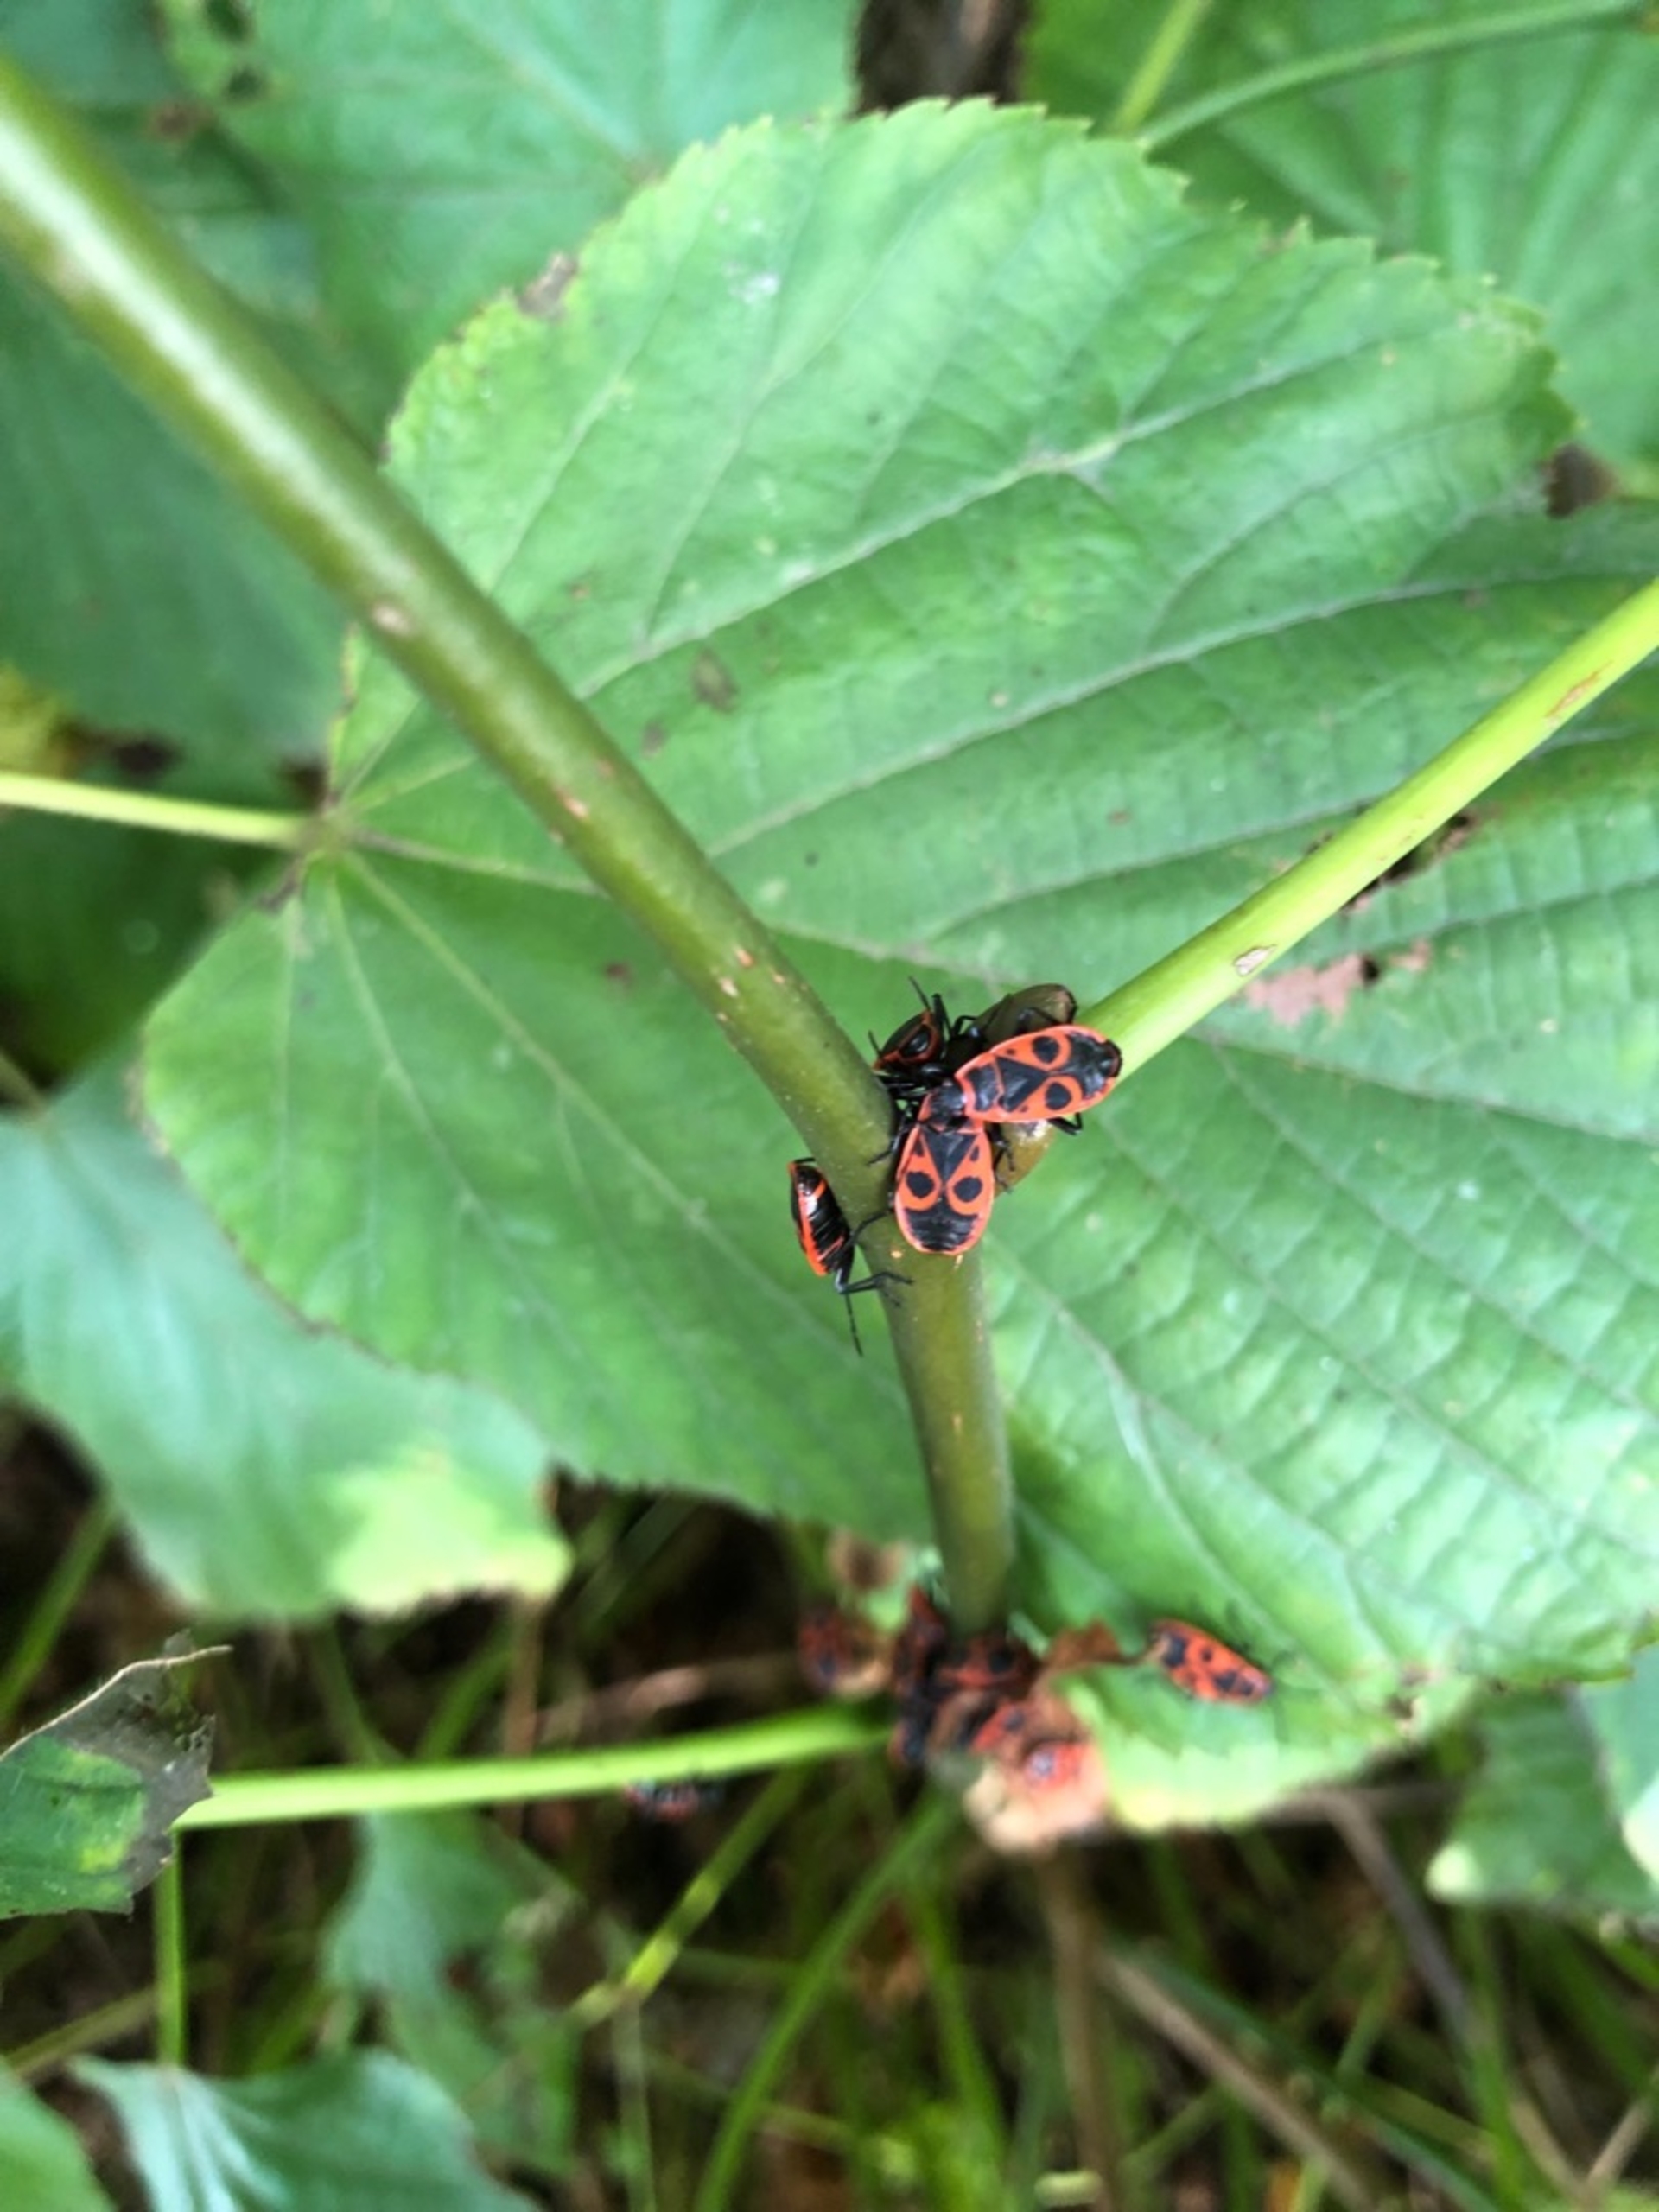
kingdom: Animalia
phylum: Arthropoda
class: Insecta
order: Hemiptera
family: Pyrrhocoridae
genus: Pyrrhocoris
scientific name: Pyrrhocoris apterus
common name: Ildtæge
